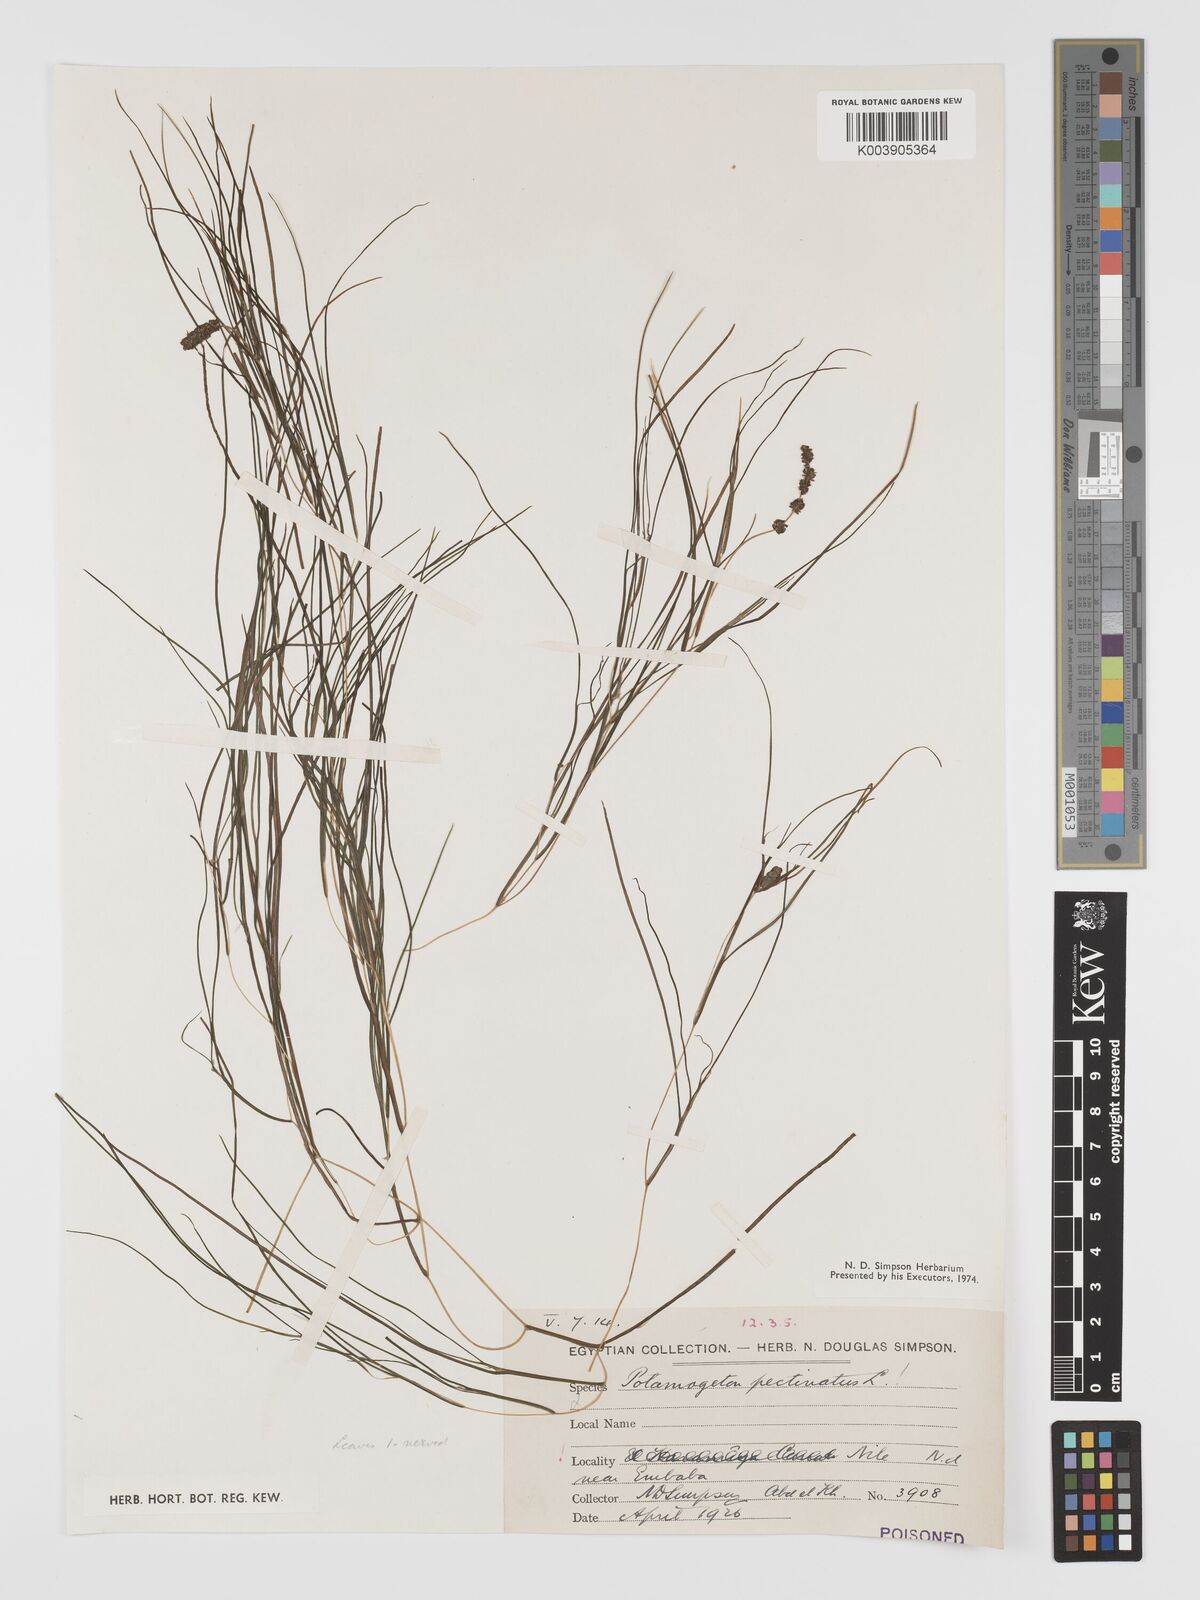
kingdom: Plantae
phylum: Tracheophyta
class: Liliopsida
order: Alismatales
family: Potamogetonaceae
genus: Stuckenia
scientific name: Stuckenia pectinata
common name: Sago pondweed
